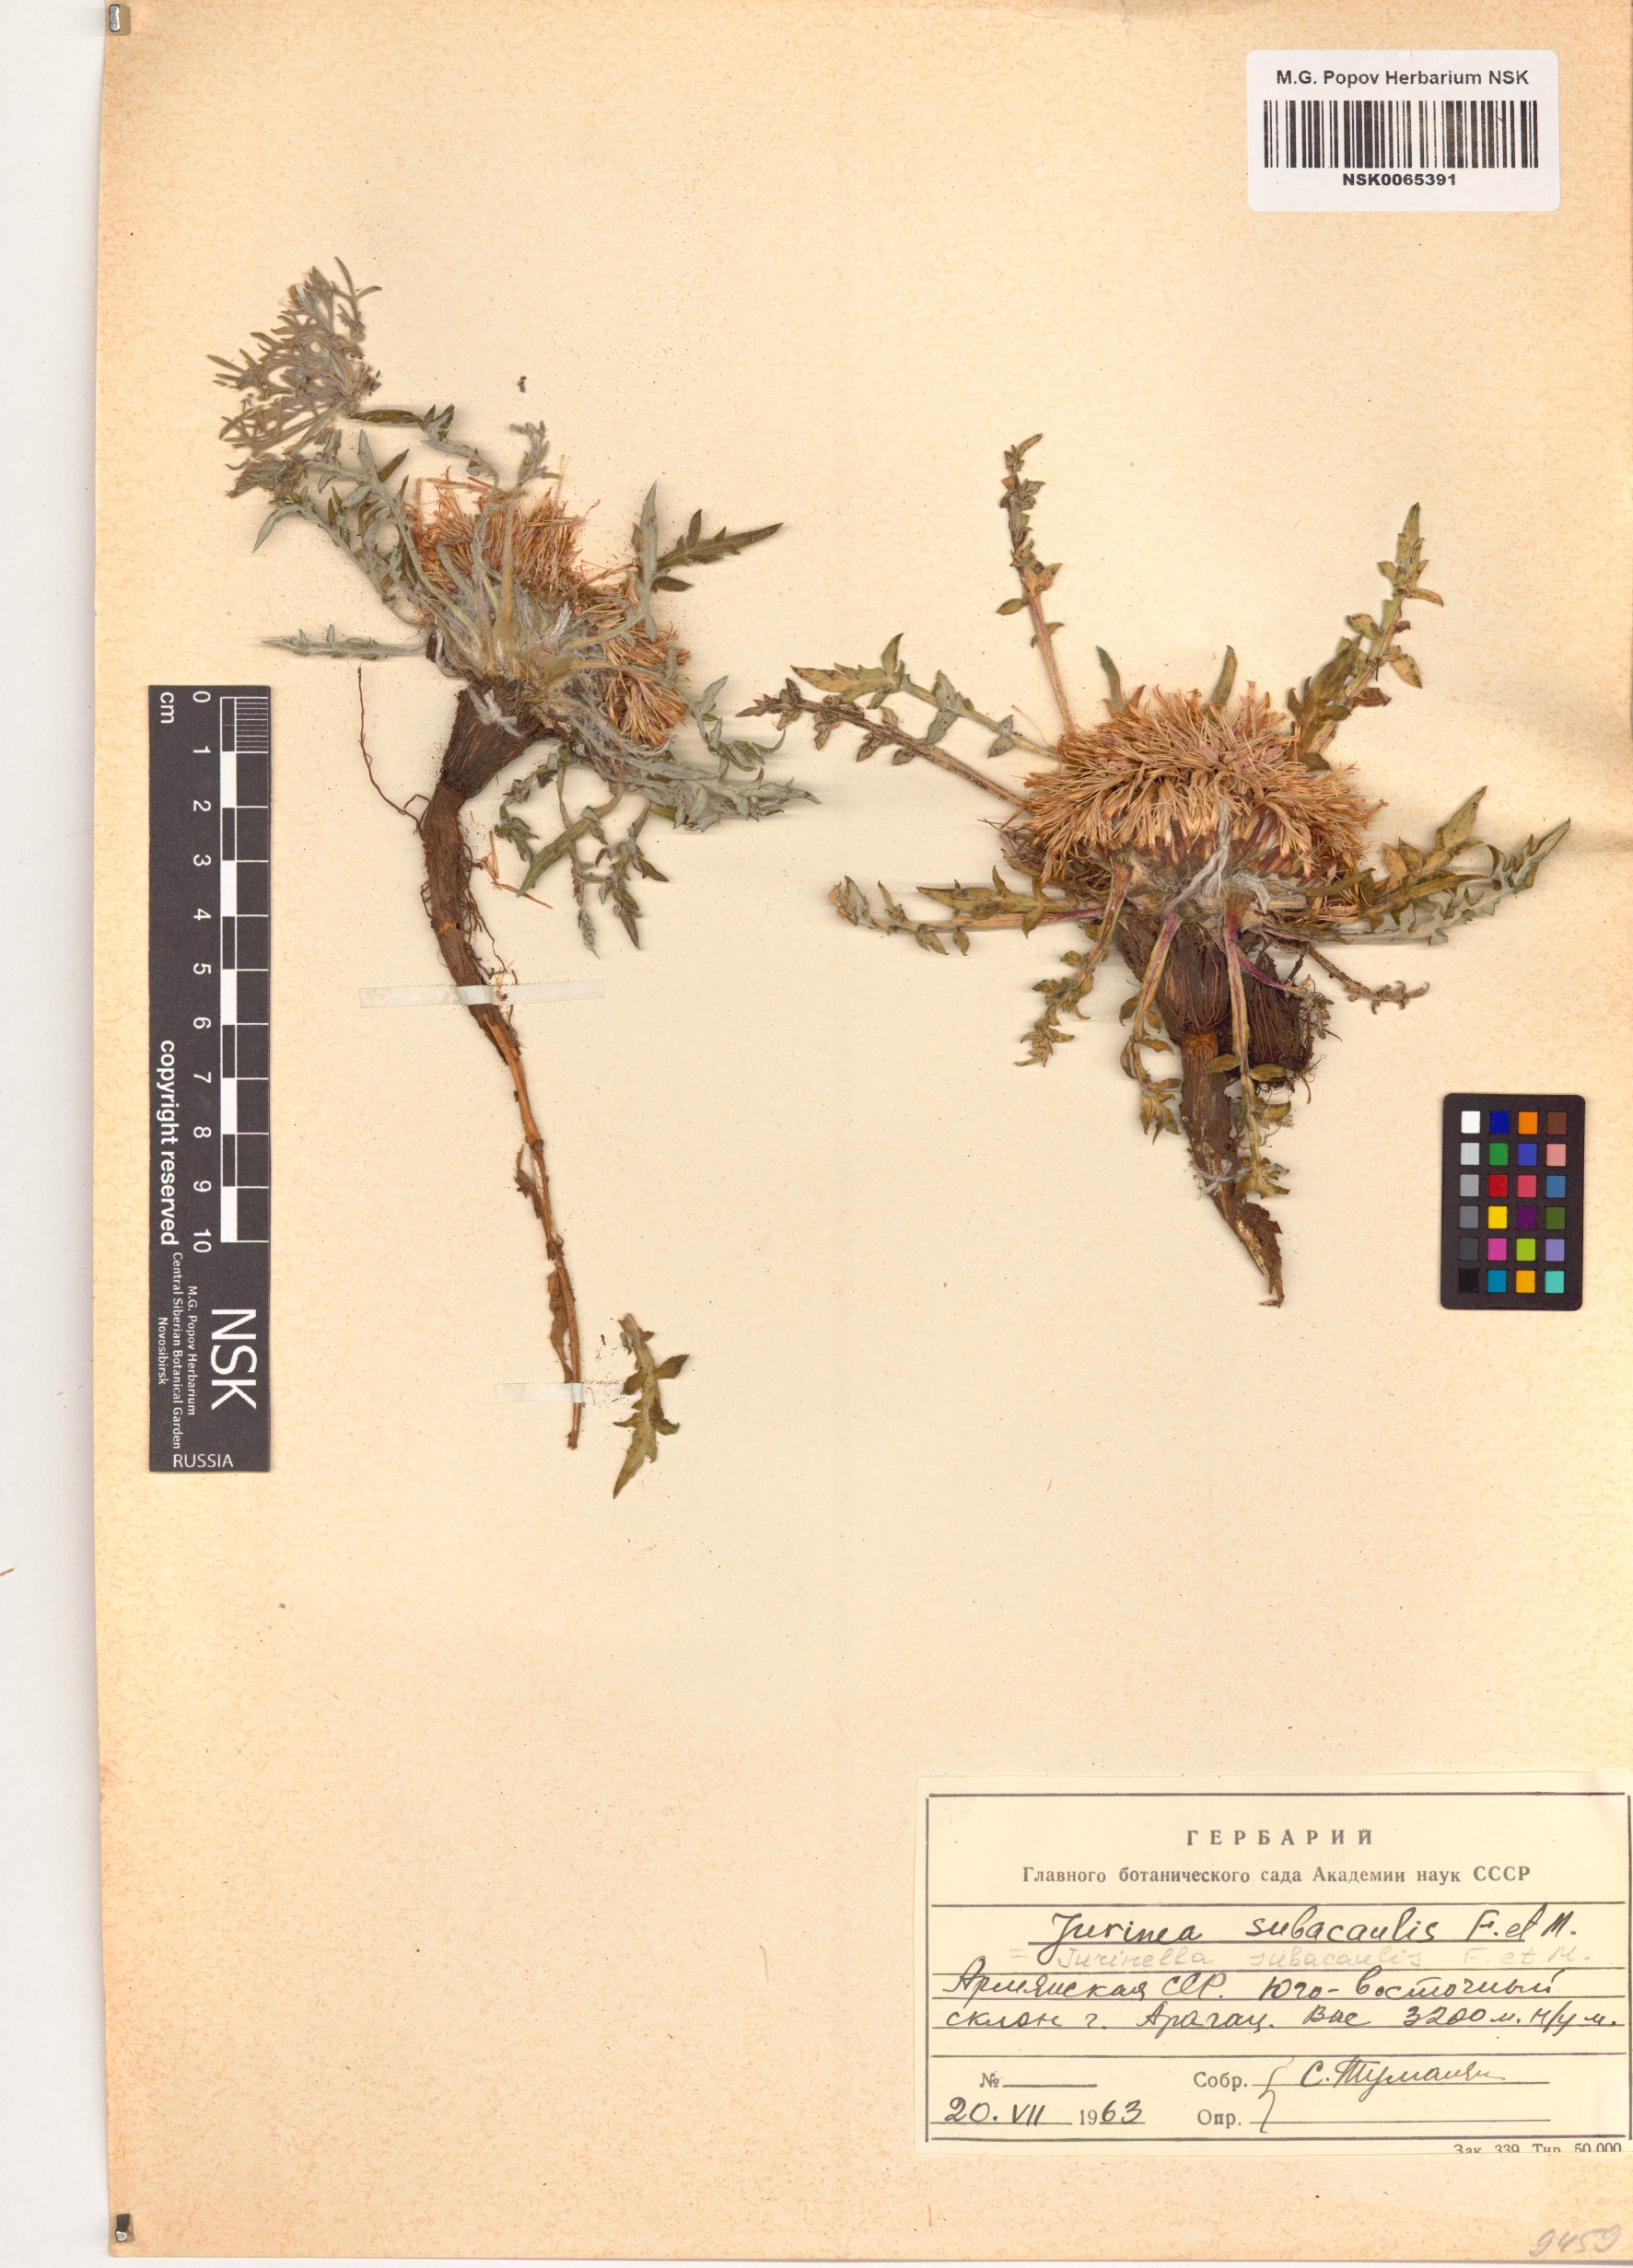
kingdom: Plantae
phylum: Tracheophyta
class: Magnoliopsida
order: Asterales
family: Asteraceae
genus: Jurinea
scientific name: Jurinea moschus
